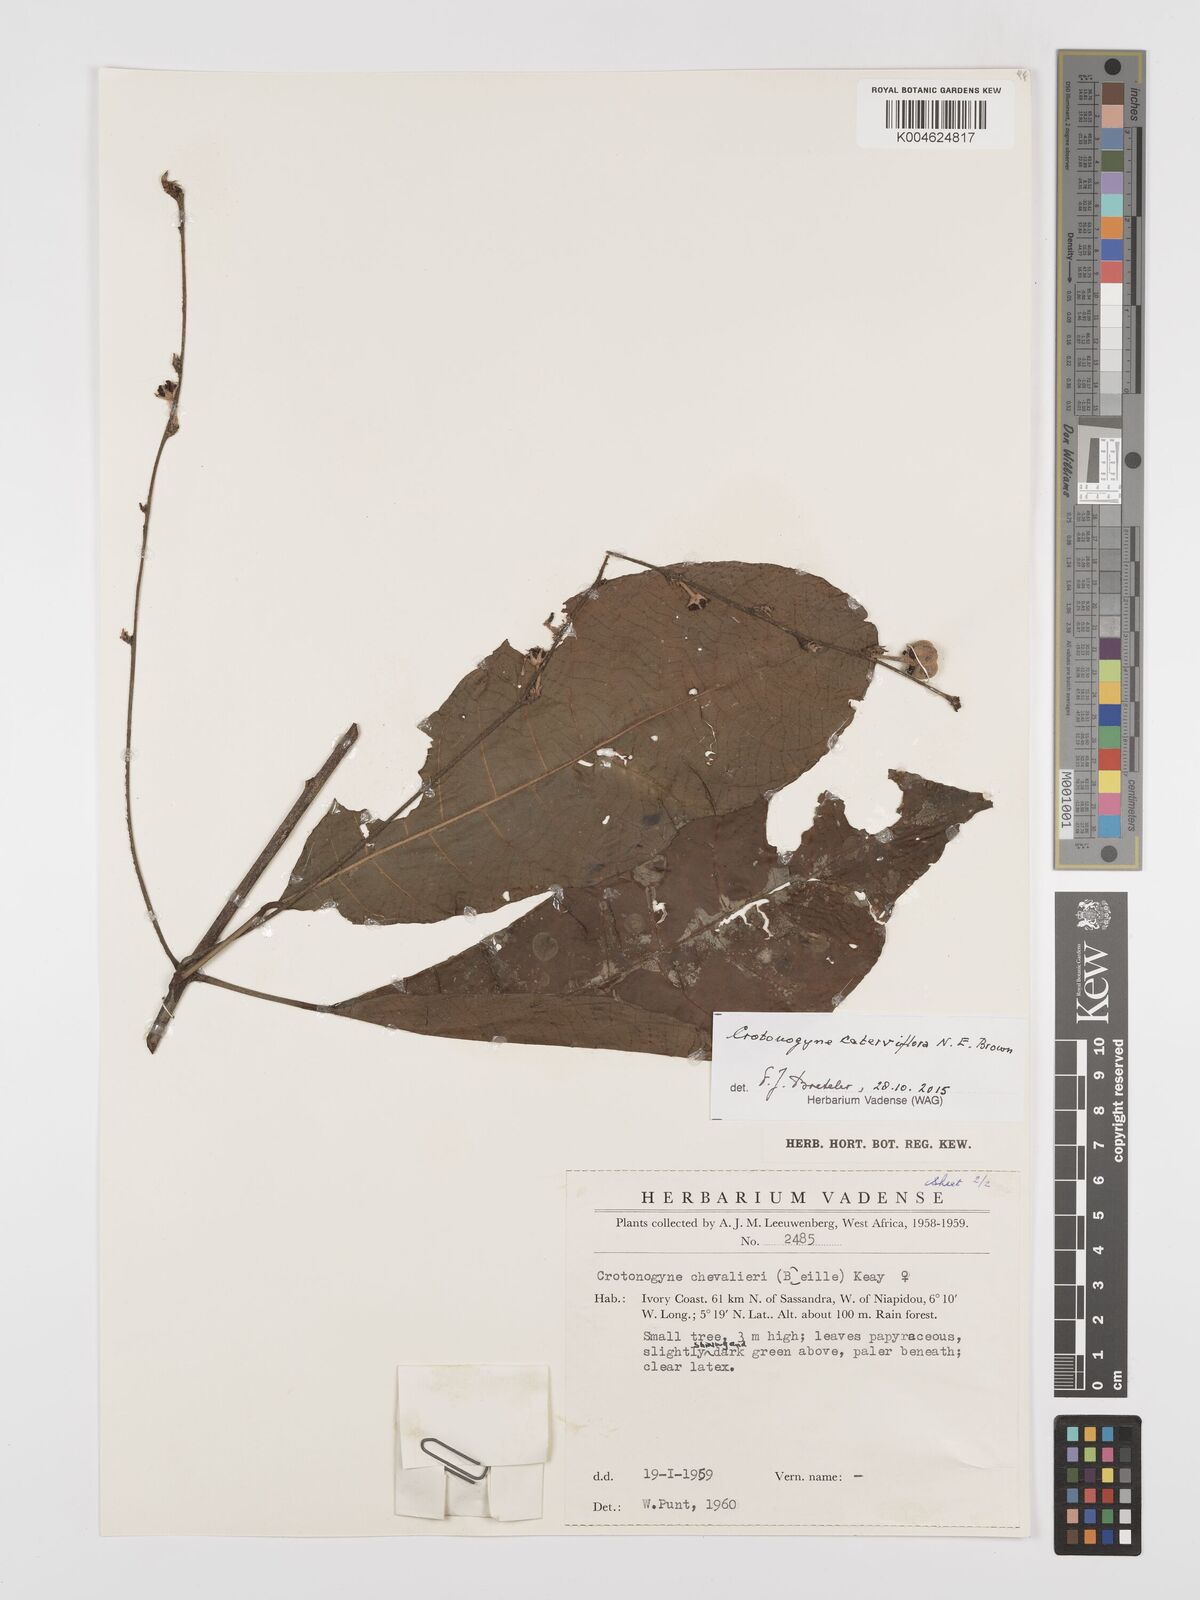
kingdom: Plantae
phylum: Tracheophyta
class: Magnoliopsida
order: Malpighiales
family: Euphorbiaceae
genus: Crotonogyne
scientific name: Crotonogyne caterviflora
